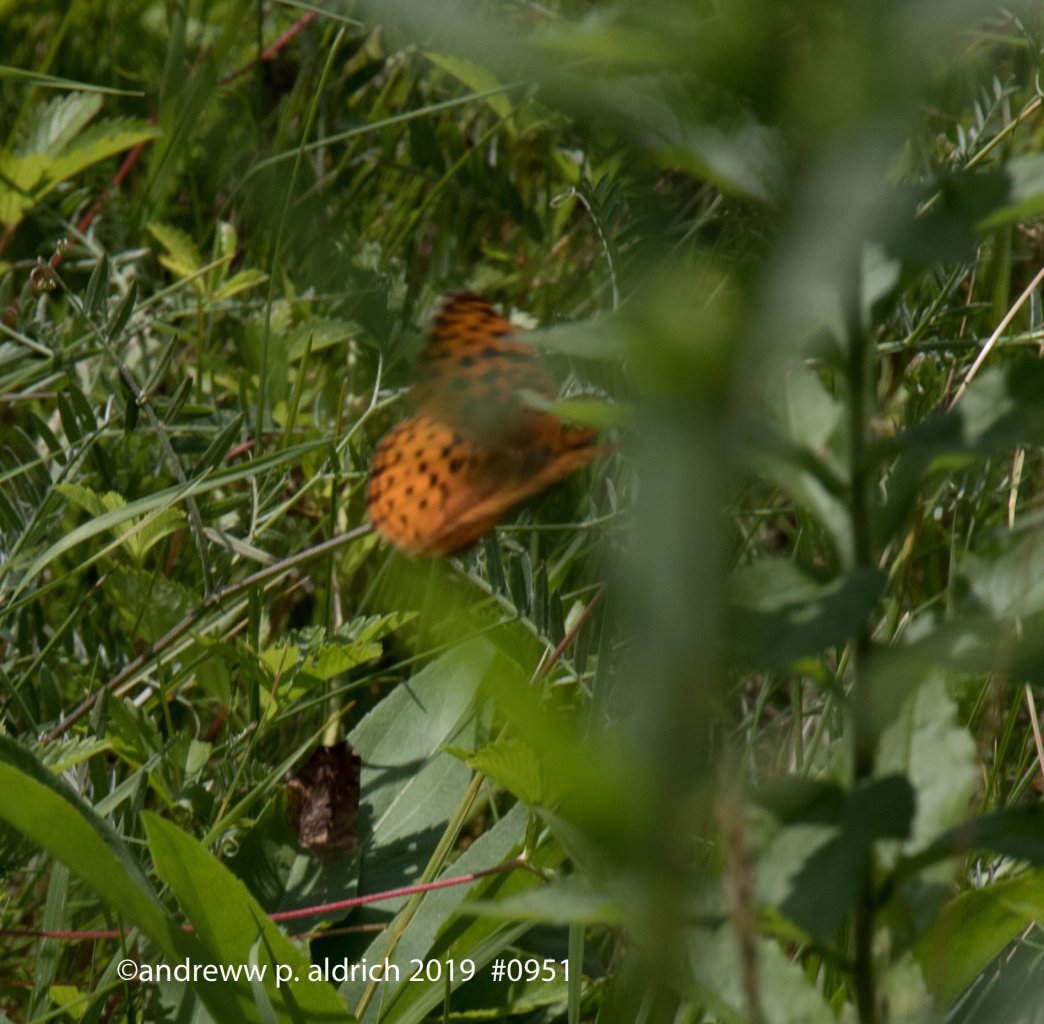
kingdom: Animalia
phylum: Arthropoda
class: Insecta
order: Lepidoptera
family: Nymphalidae
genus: Boloria
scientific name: Boloria
